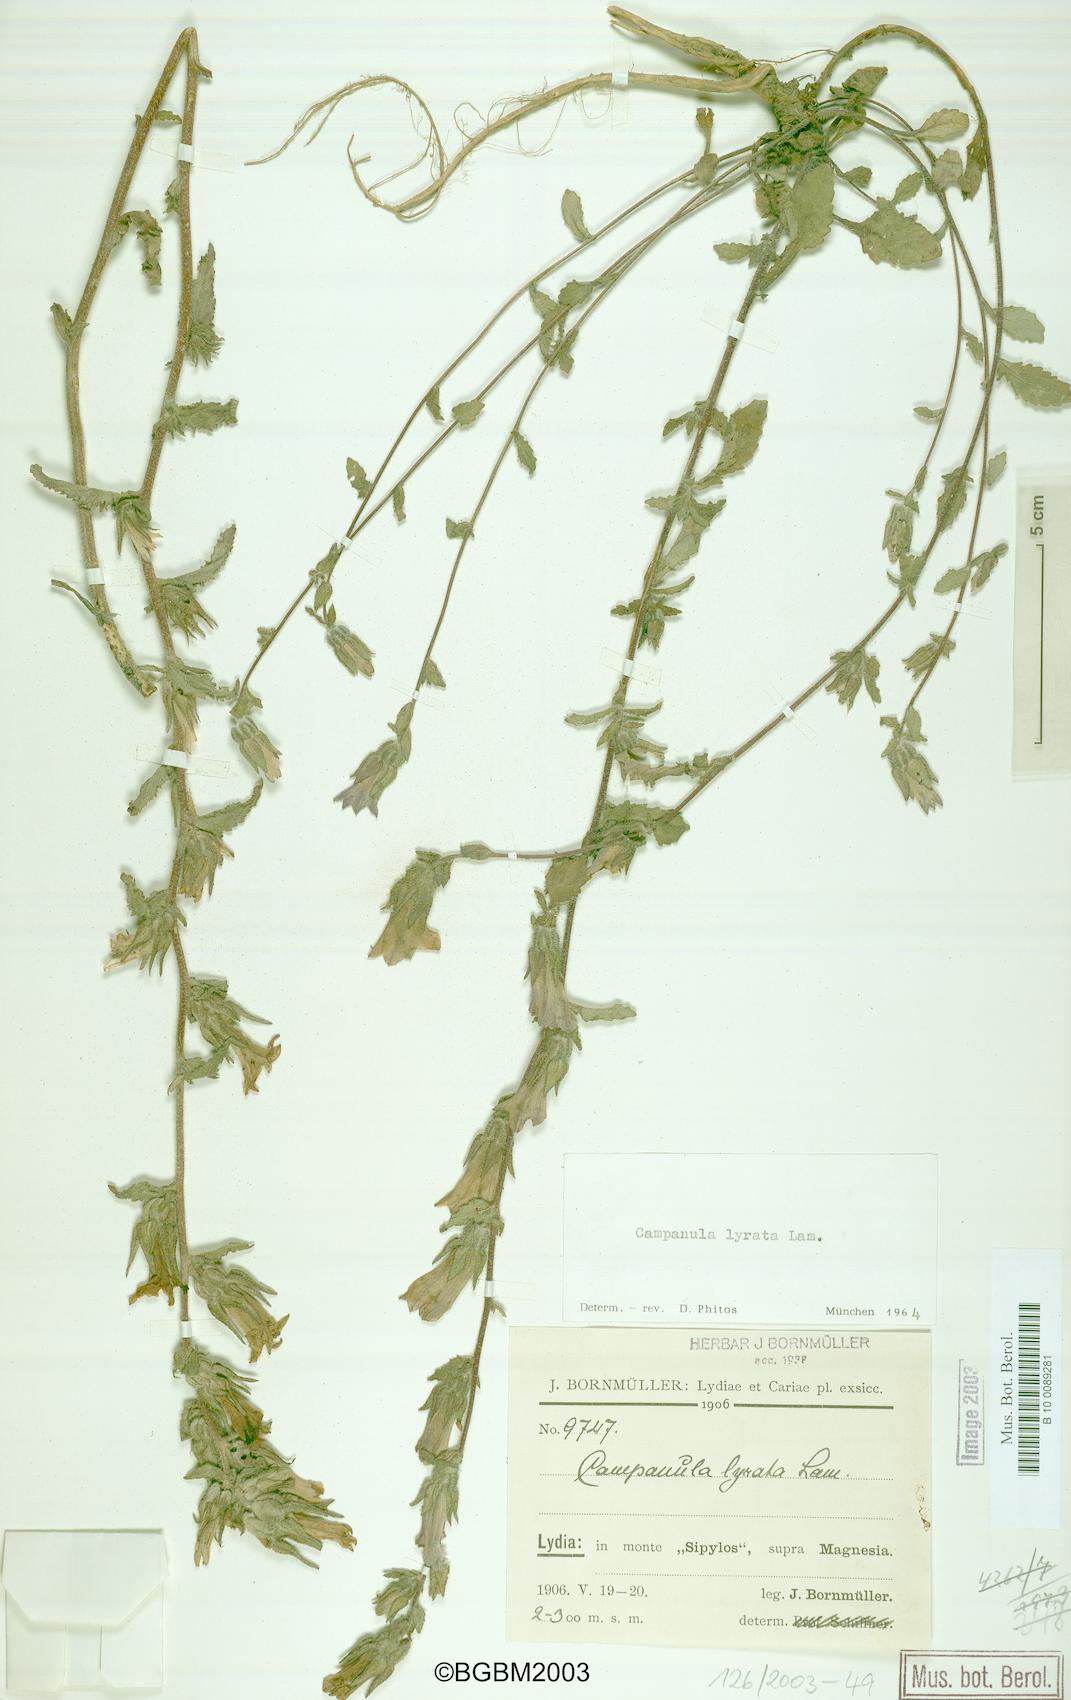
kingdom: Plantae
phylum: Tracheophyta
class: Magnoliopsida
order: Asterales
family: Campanulaceae
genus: Campanula
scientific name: Campanula lyrata
